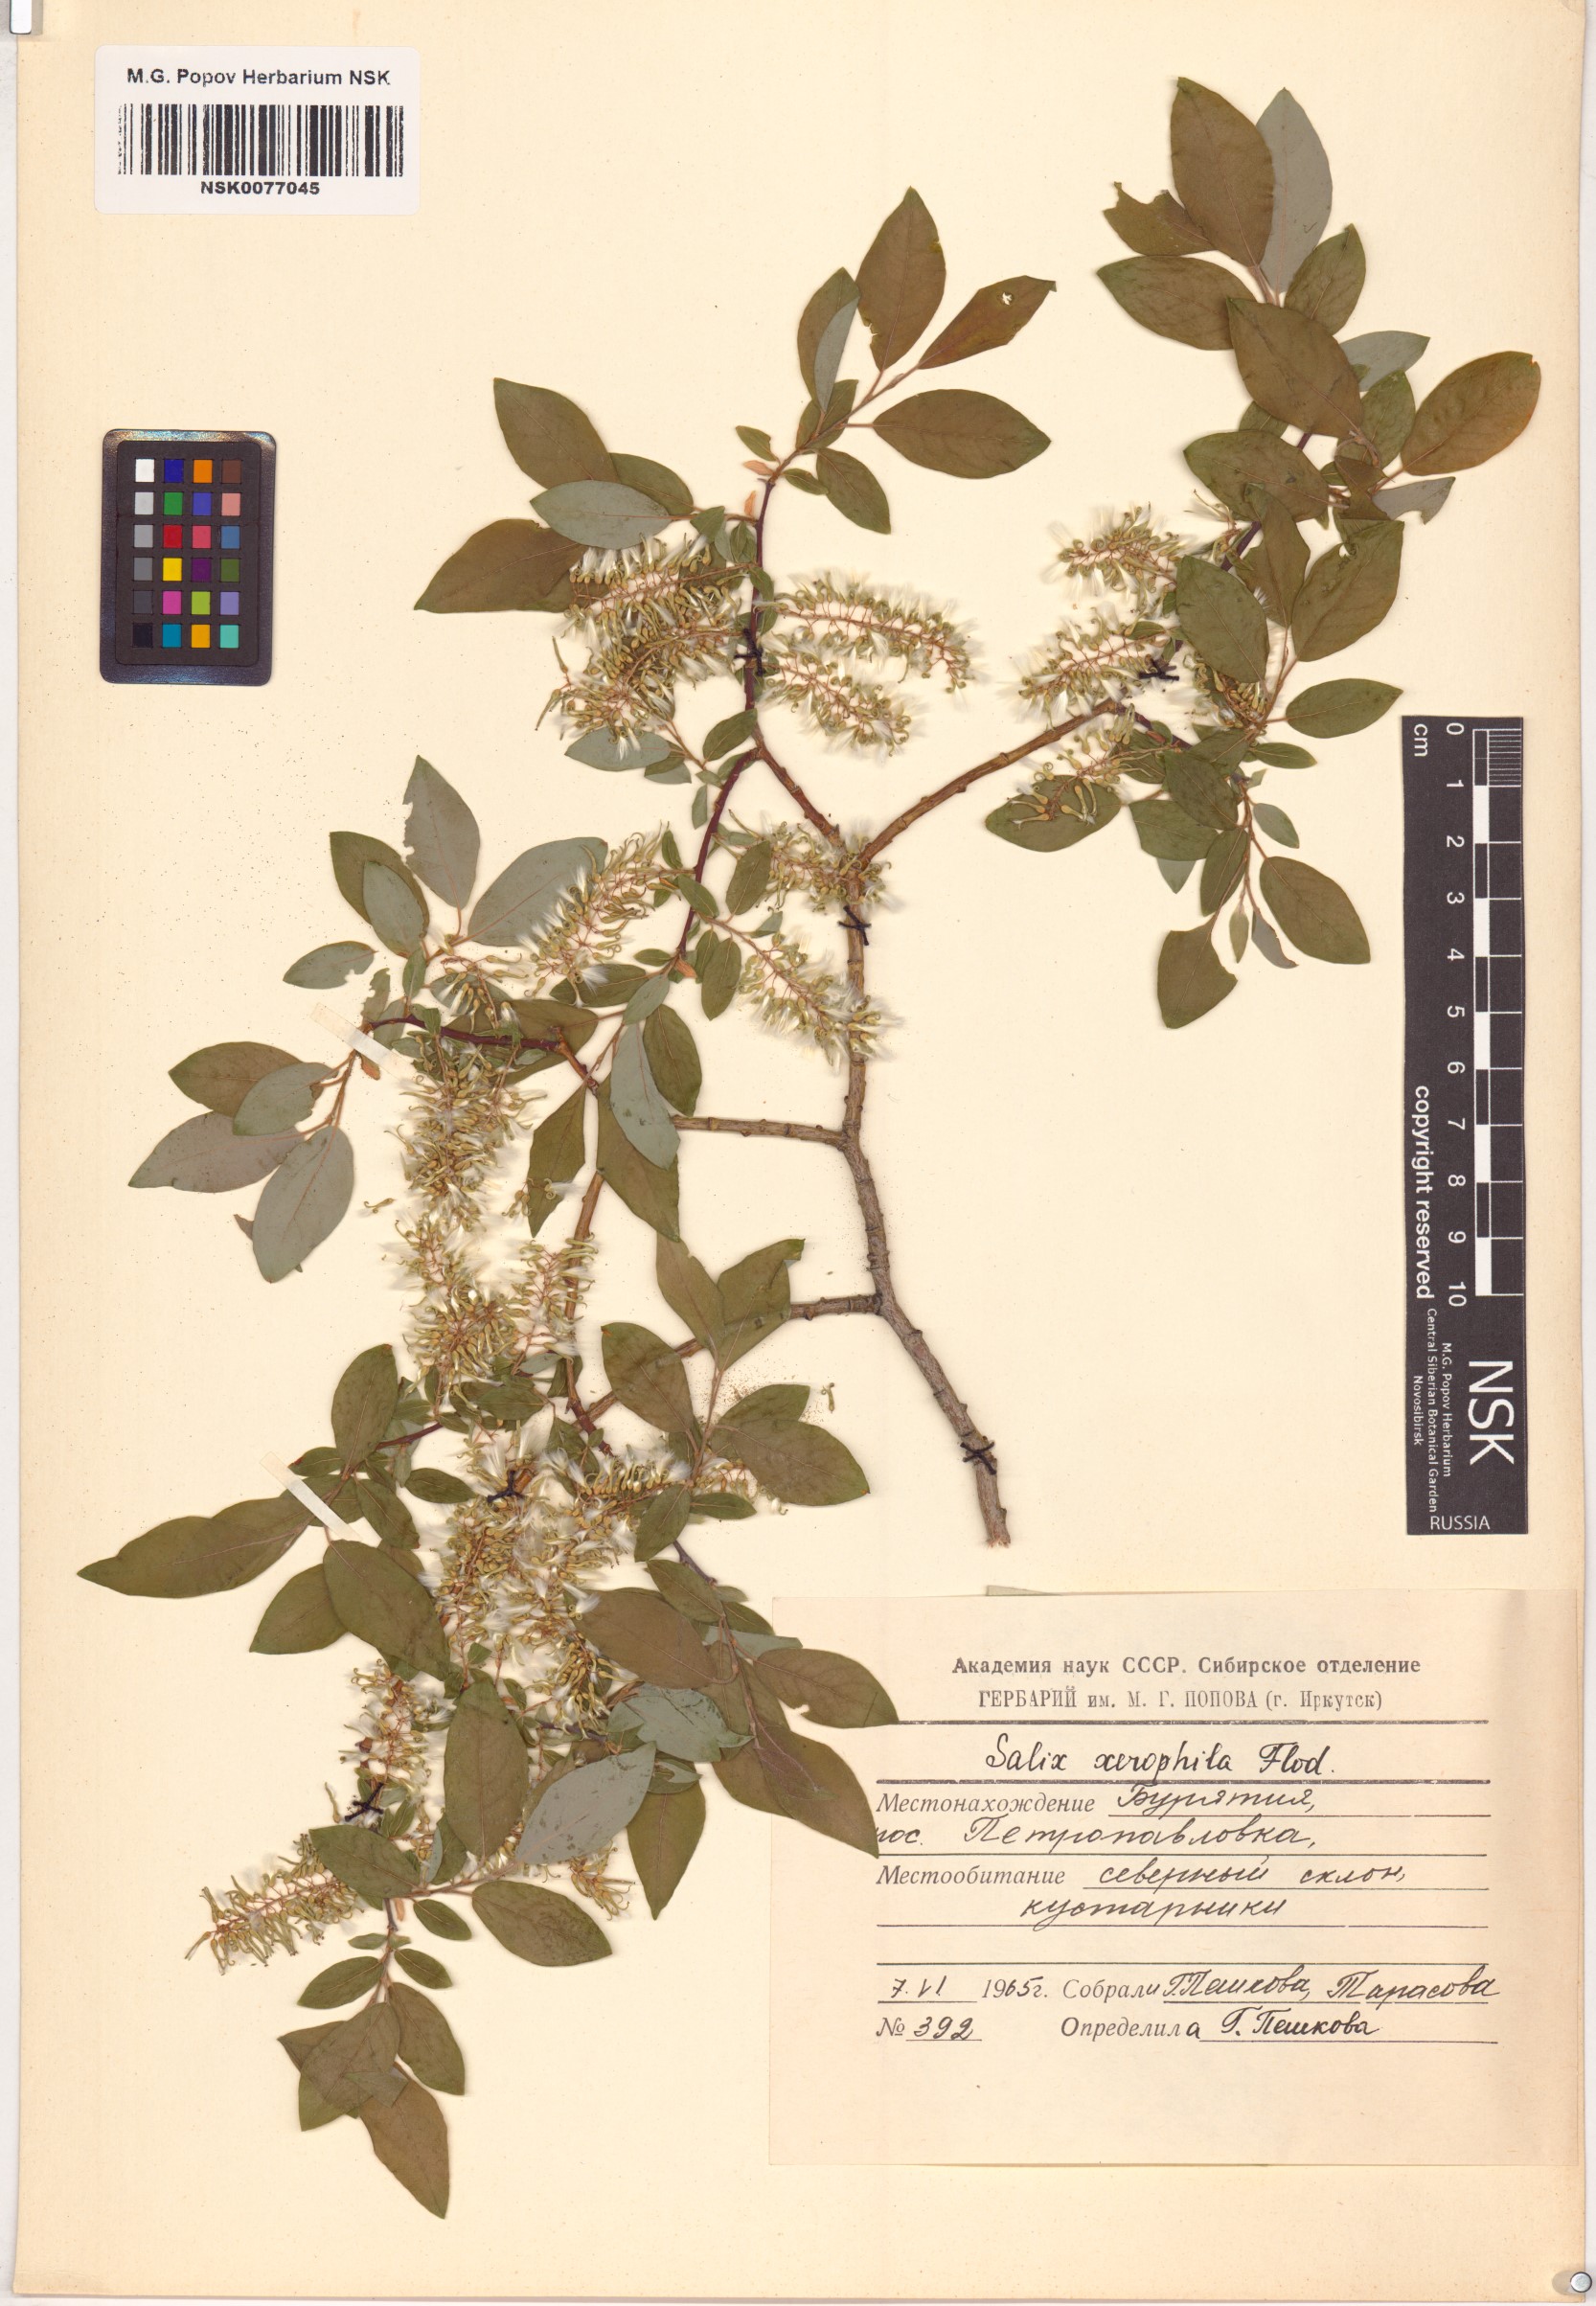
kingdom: Plantae
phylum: Tracheophyta
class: Magnoliopsida
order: Malpighiales
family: Salicaceae
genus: Salix
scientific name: Salix bebbiana
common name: Bebb's willow
